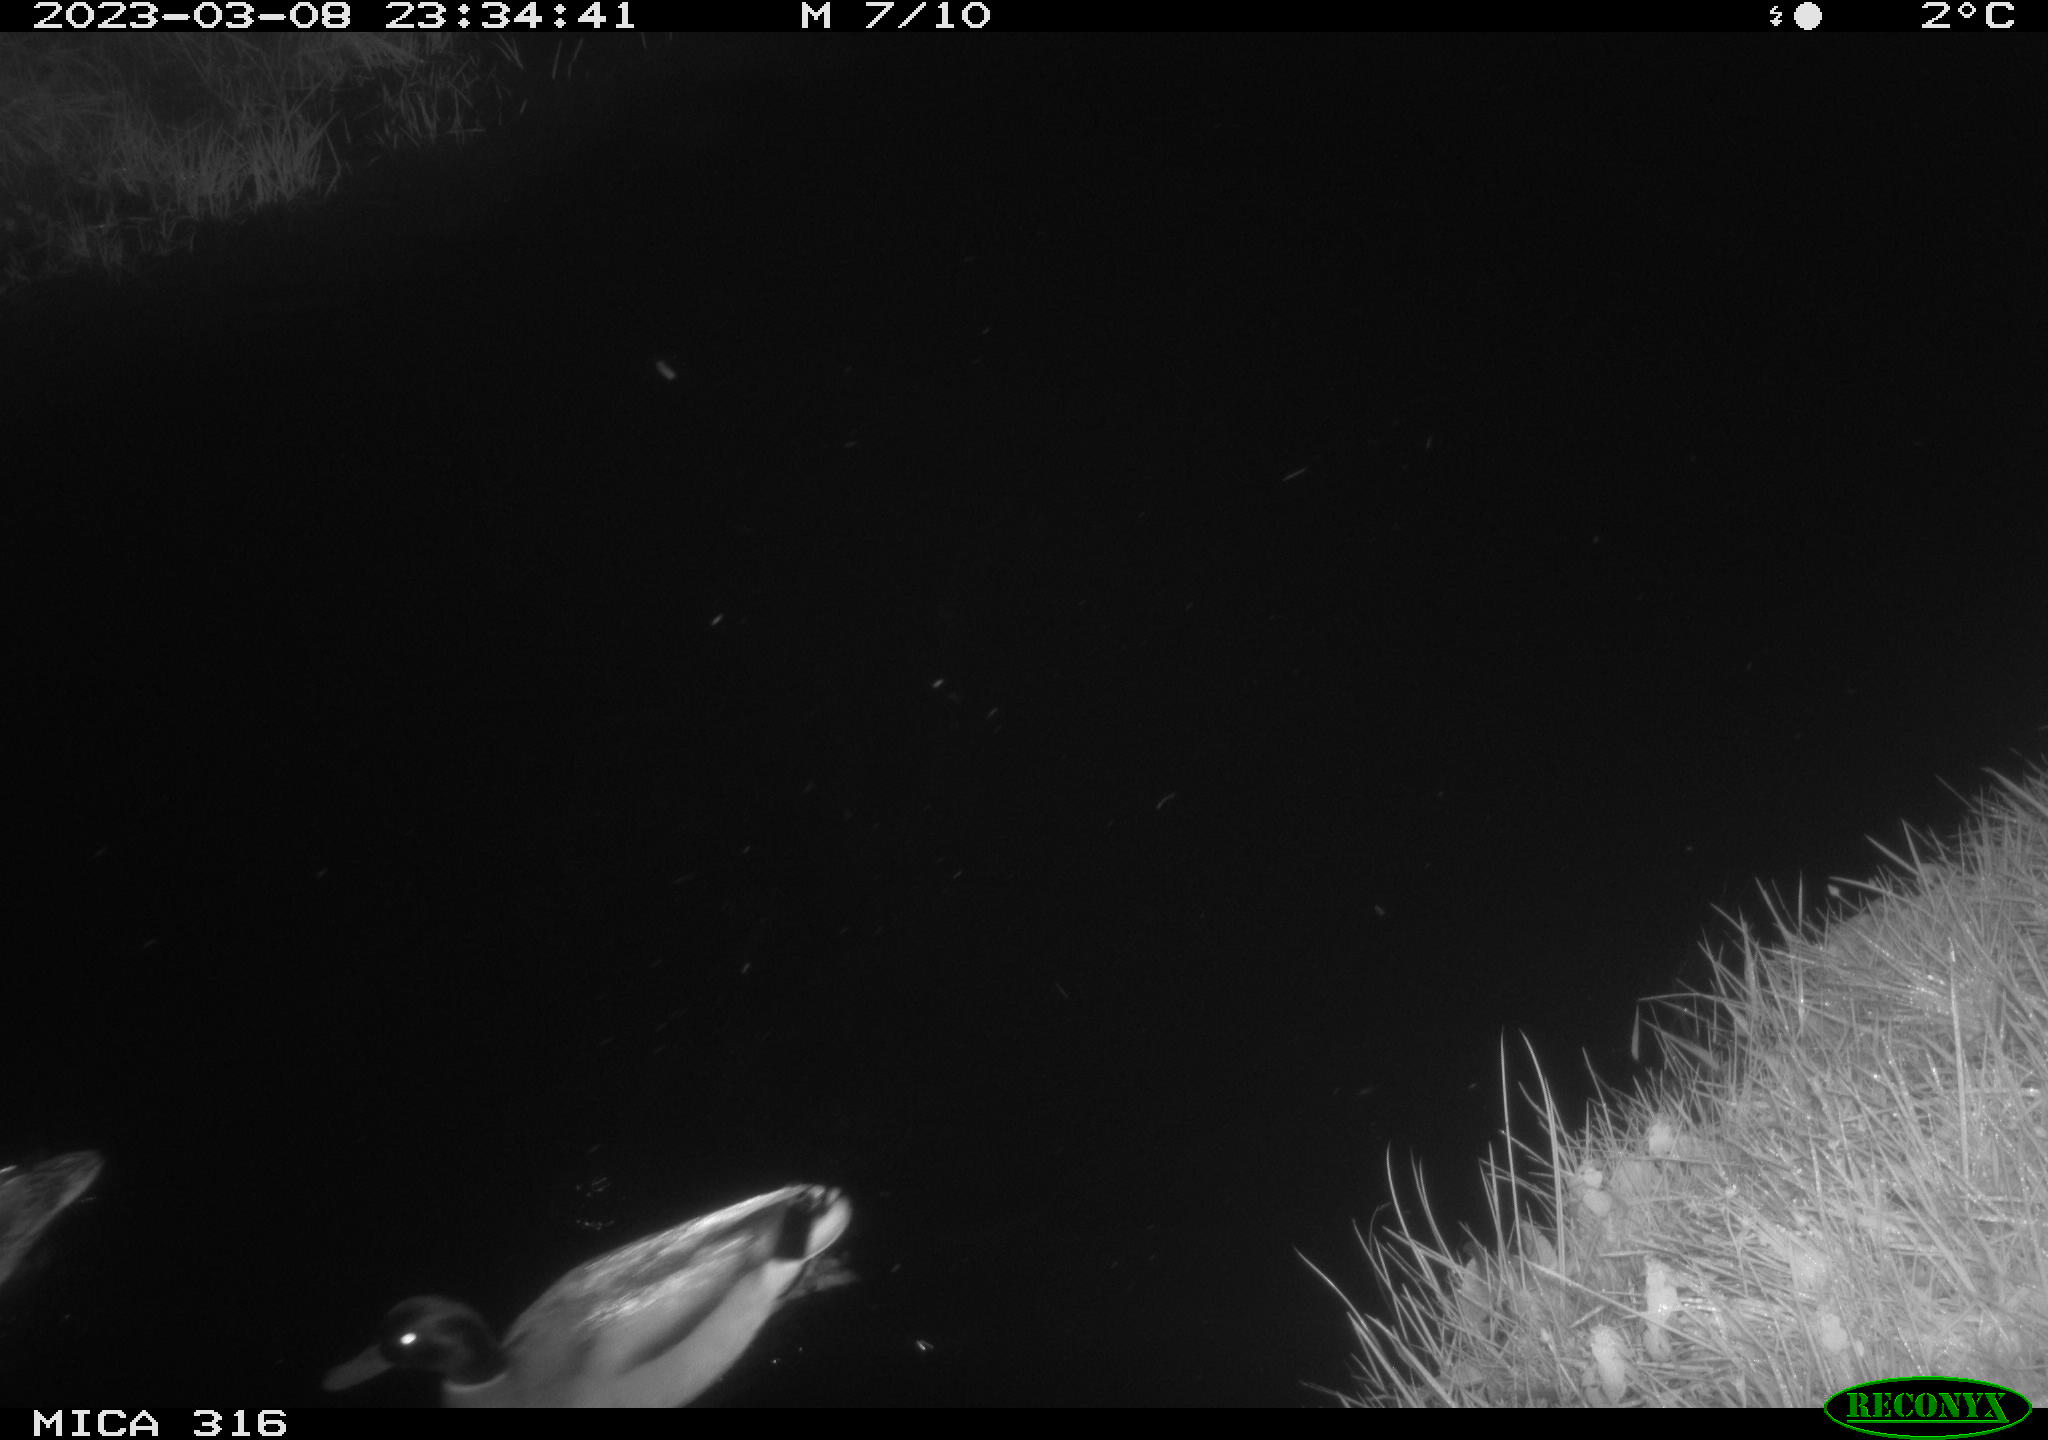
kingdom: Animalia
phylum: Chordata
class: Aves
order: Anseriformes
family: Anatidae
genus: Anas
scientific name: Anas
